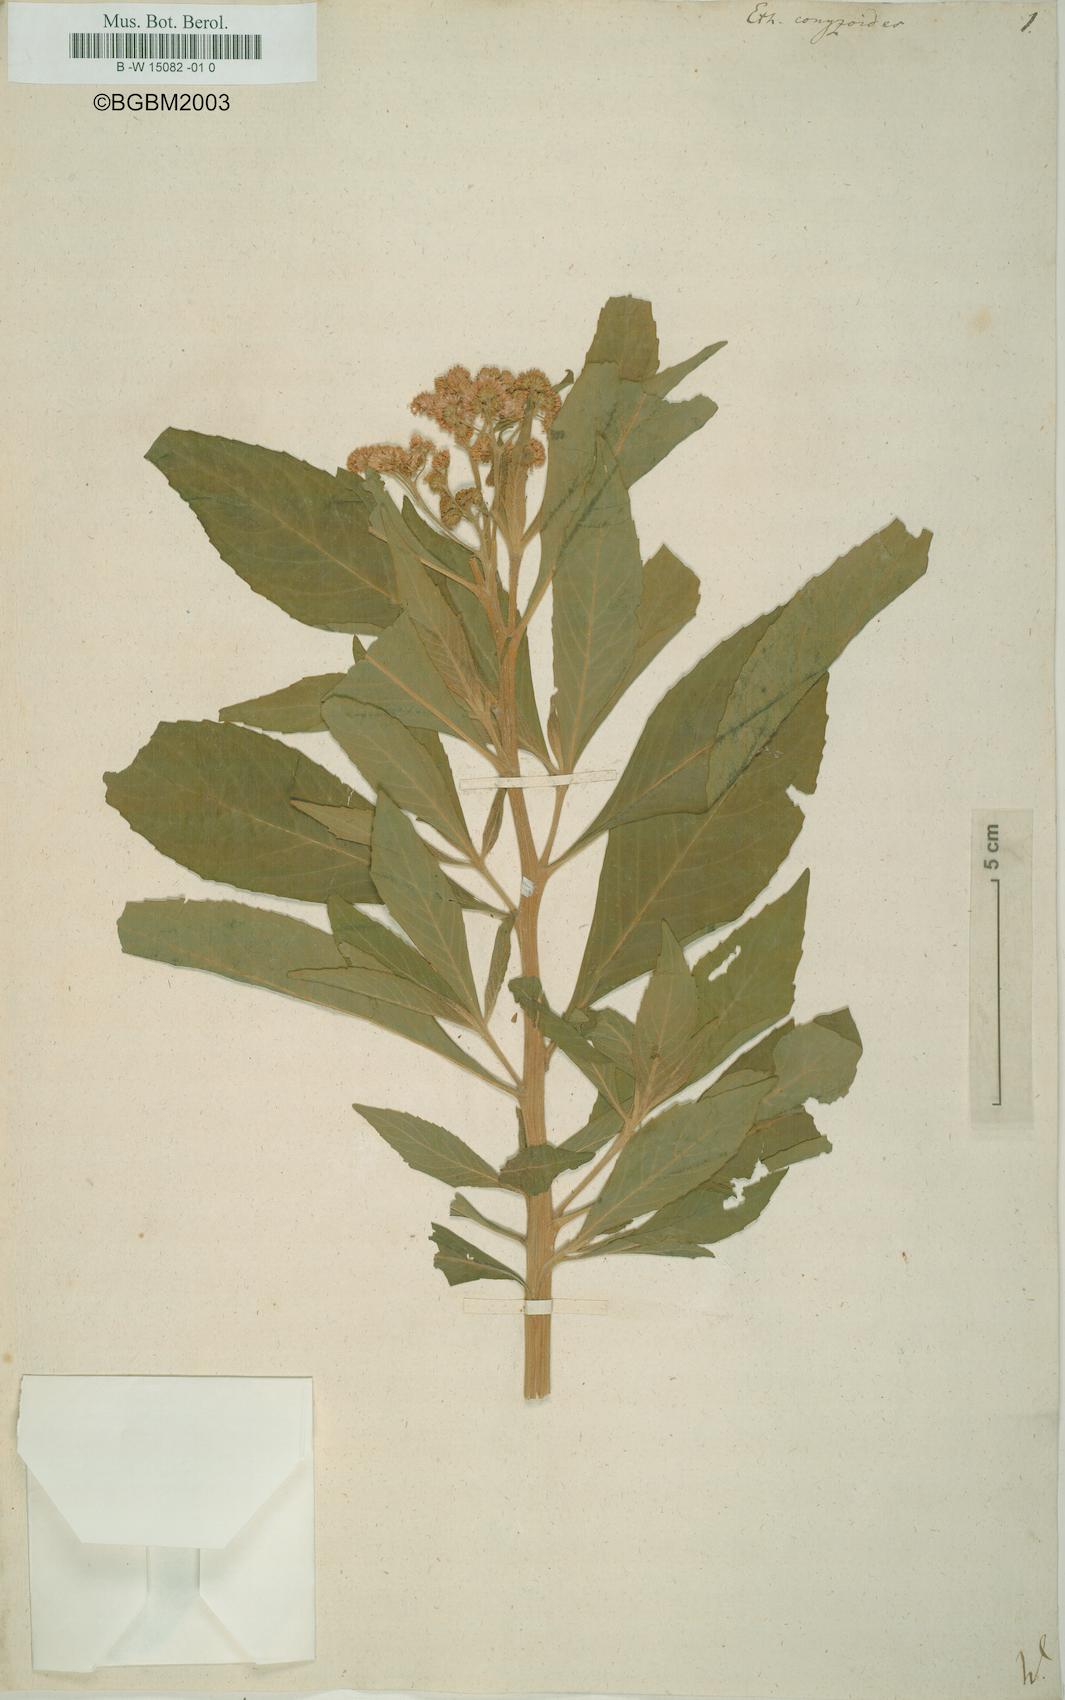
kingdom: Plantae
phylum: Tracheophyta
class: Magnoliopsida
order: Asterales
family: Asteraceae
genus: Ethulia
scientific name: Ethulia conyzoides
